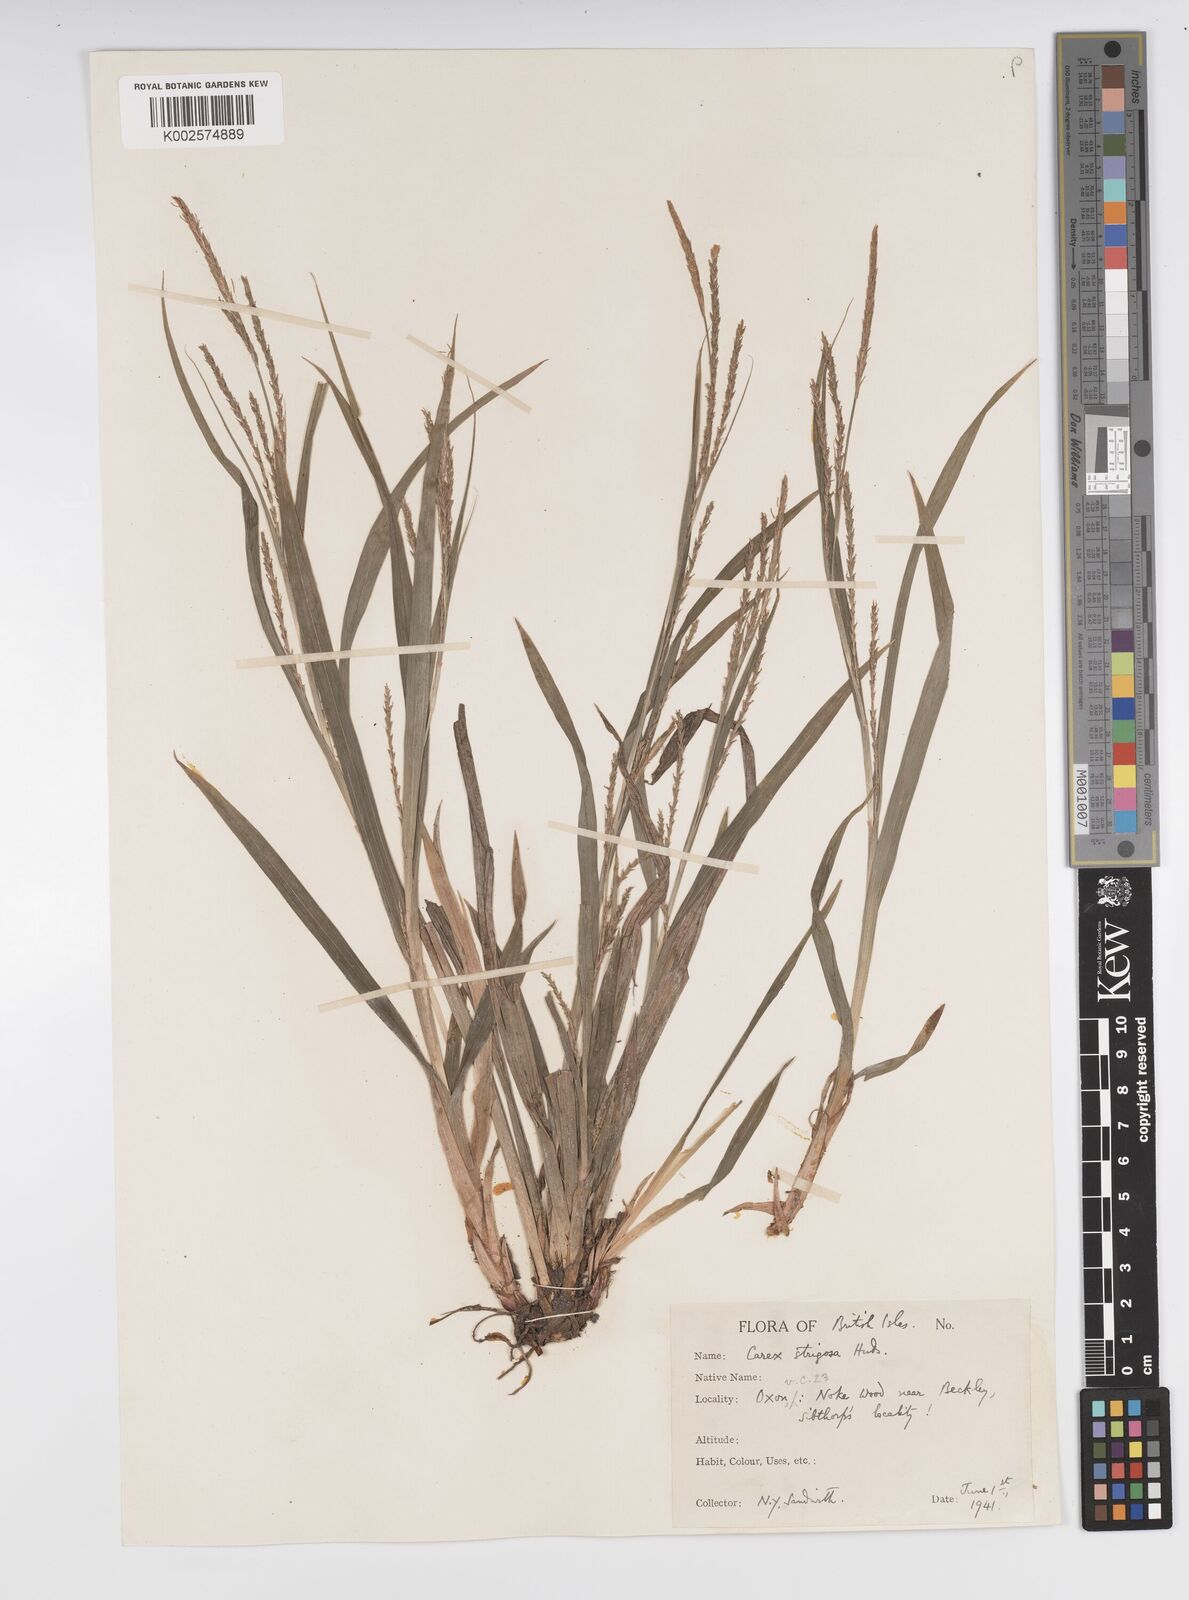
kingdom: Plantae
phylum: Tracheophyta
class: Liliopsida
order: Poales
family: Cyperaceae
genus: Carex
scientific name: Carex strigosa
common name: Thin-spiked wood-sedge
